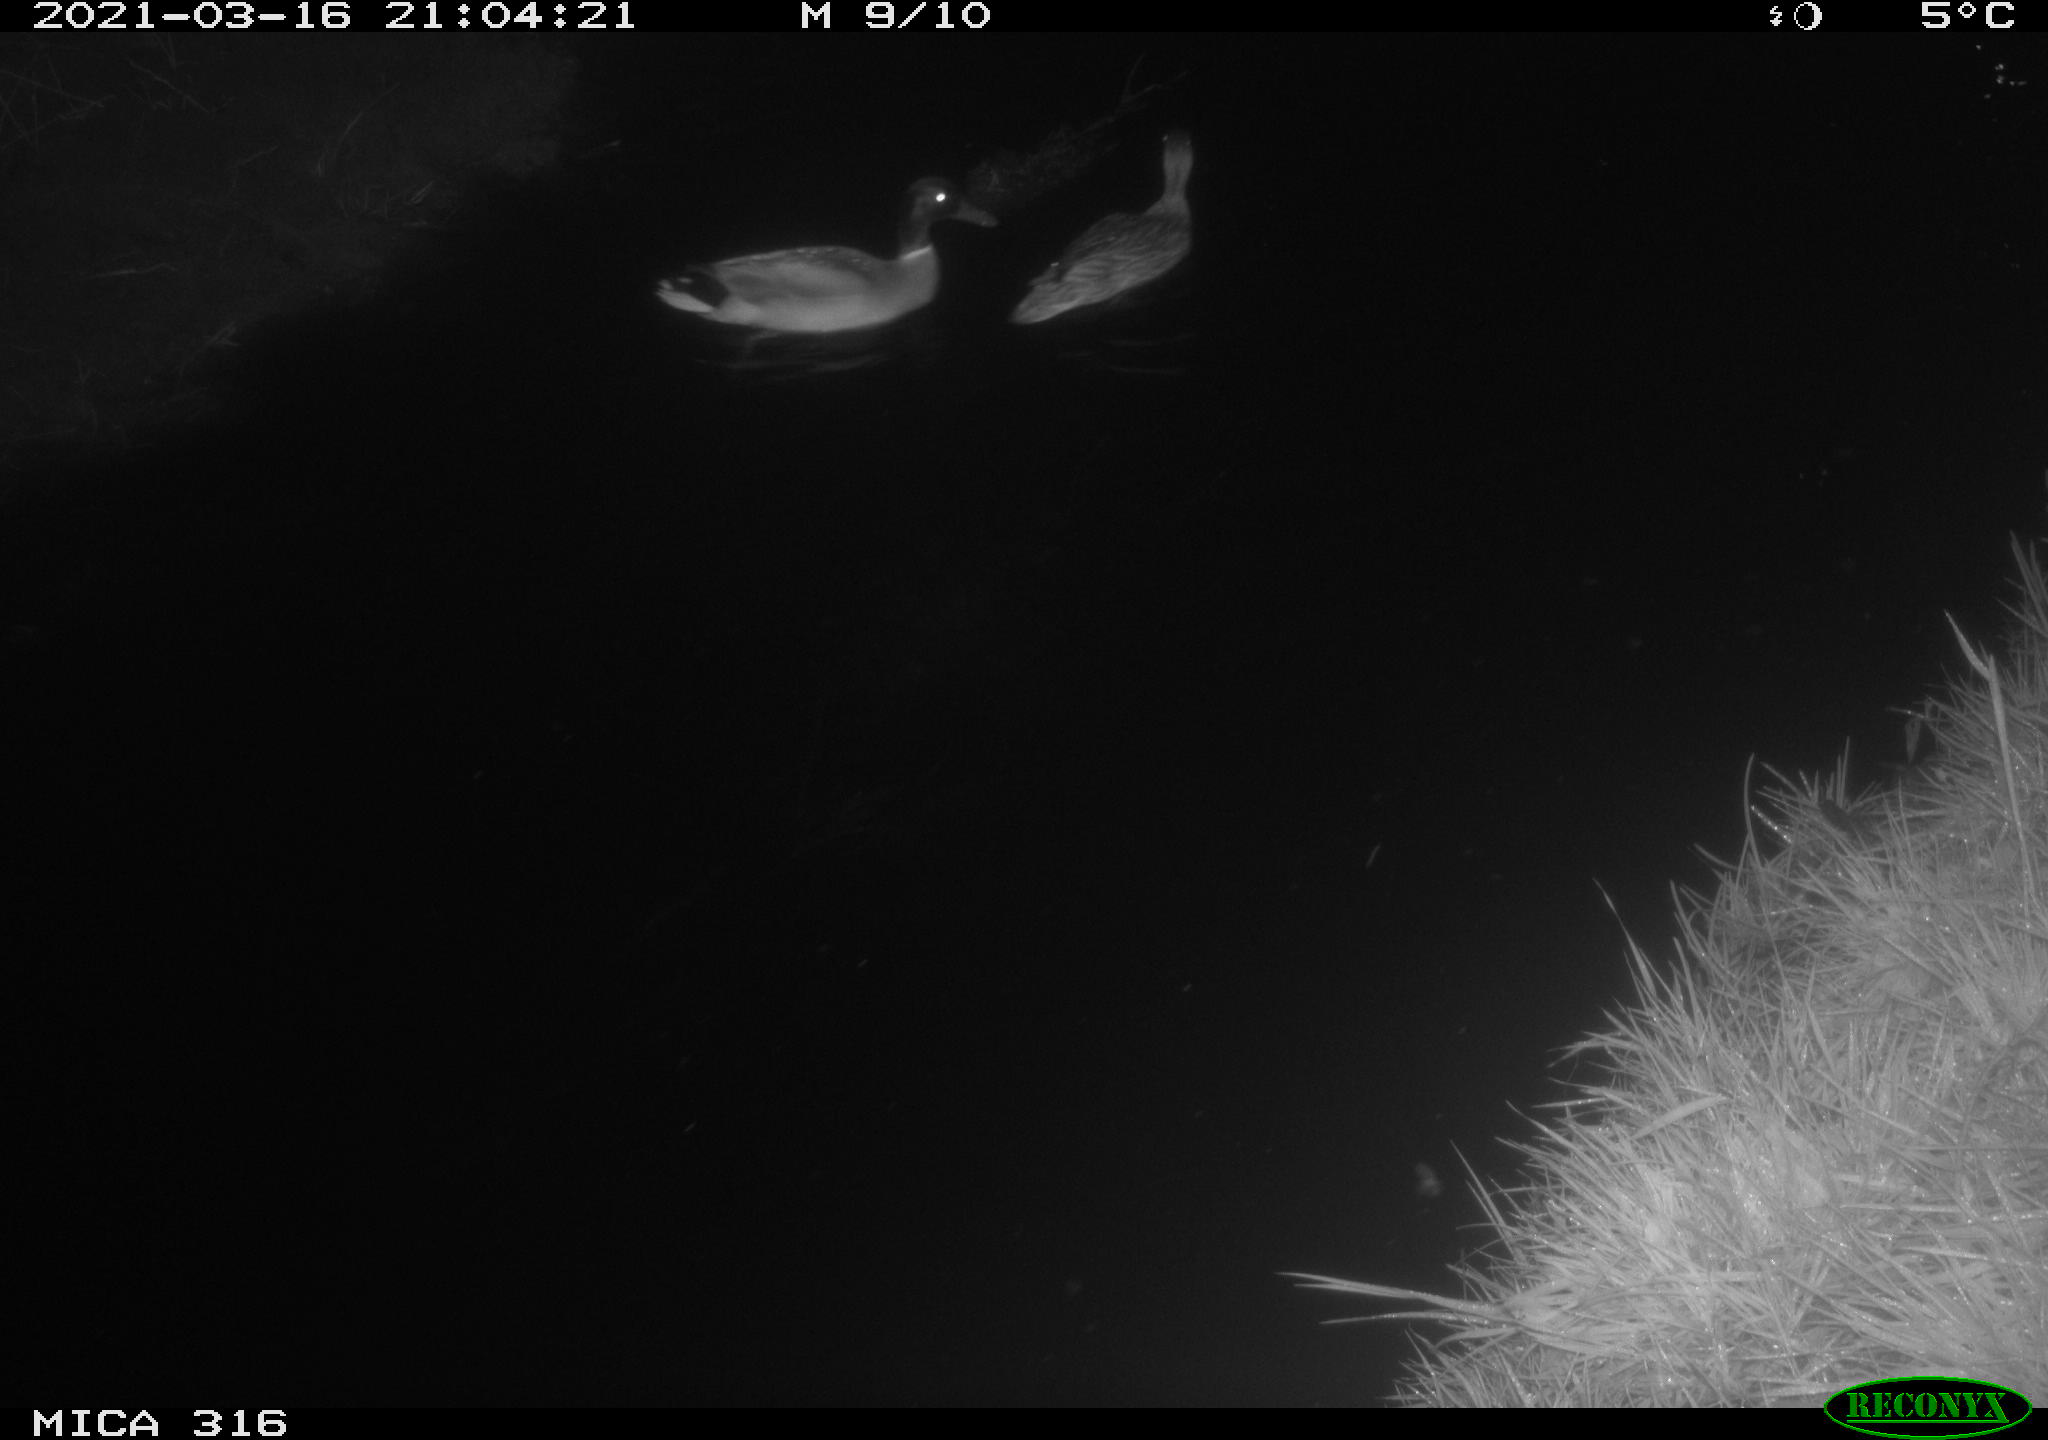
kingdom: Animalia
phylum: Chordata
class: Aves
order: Anseriformes
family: Anatidae
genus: Anas
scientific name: Anas platyrhynchos
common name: Mallard
